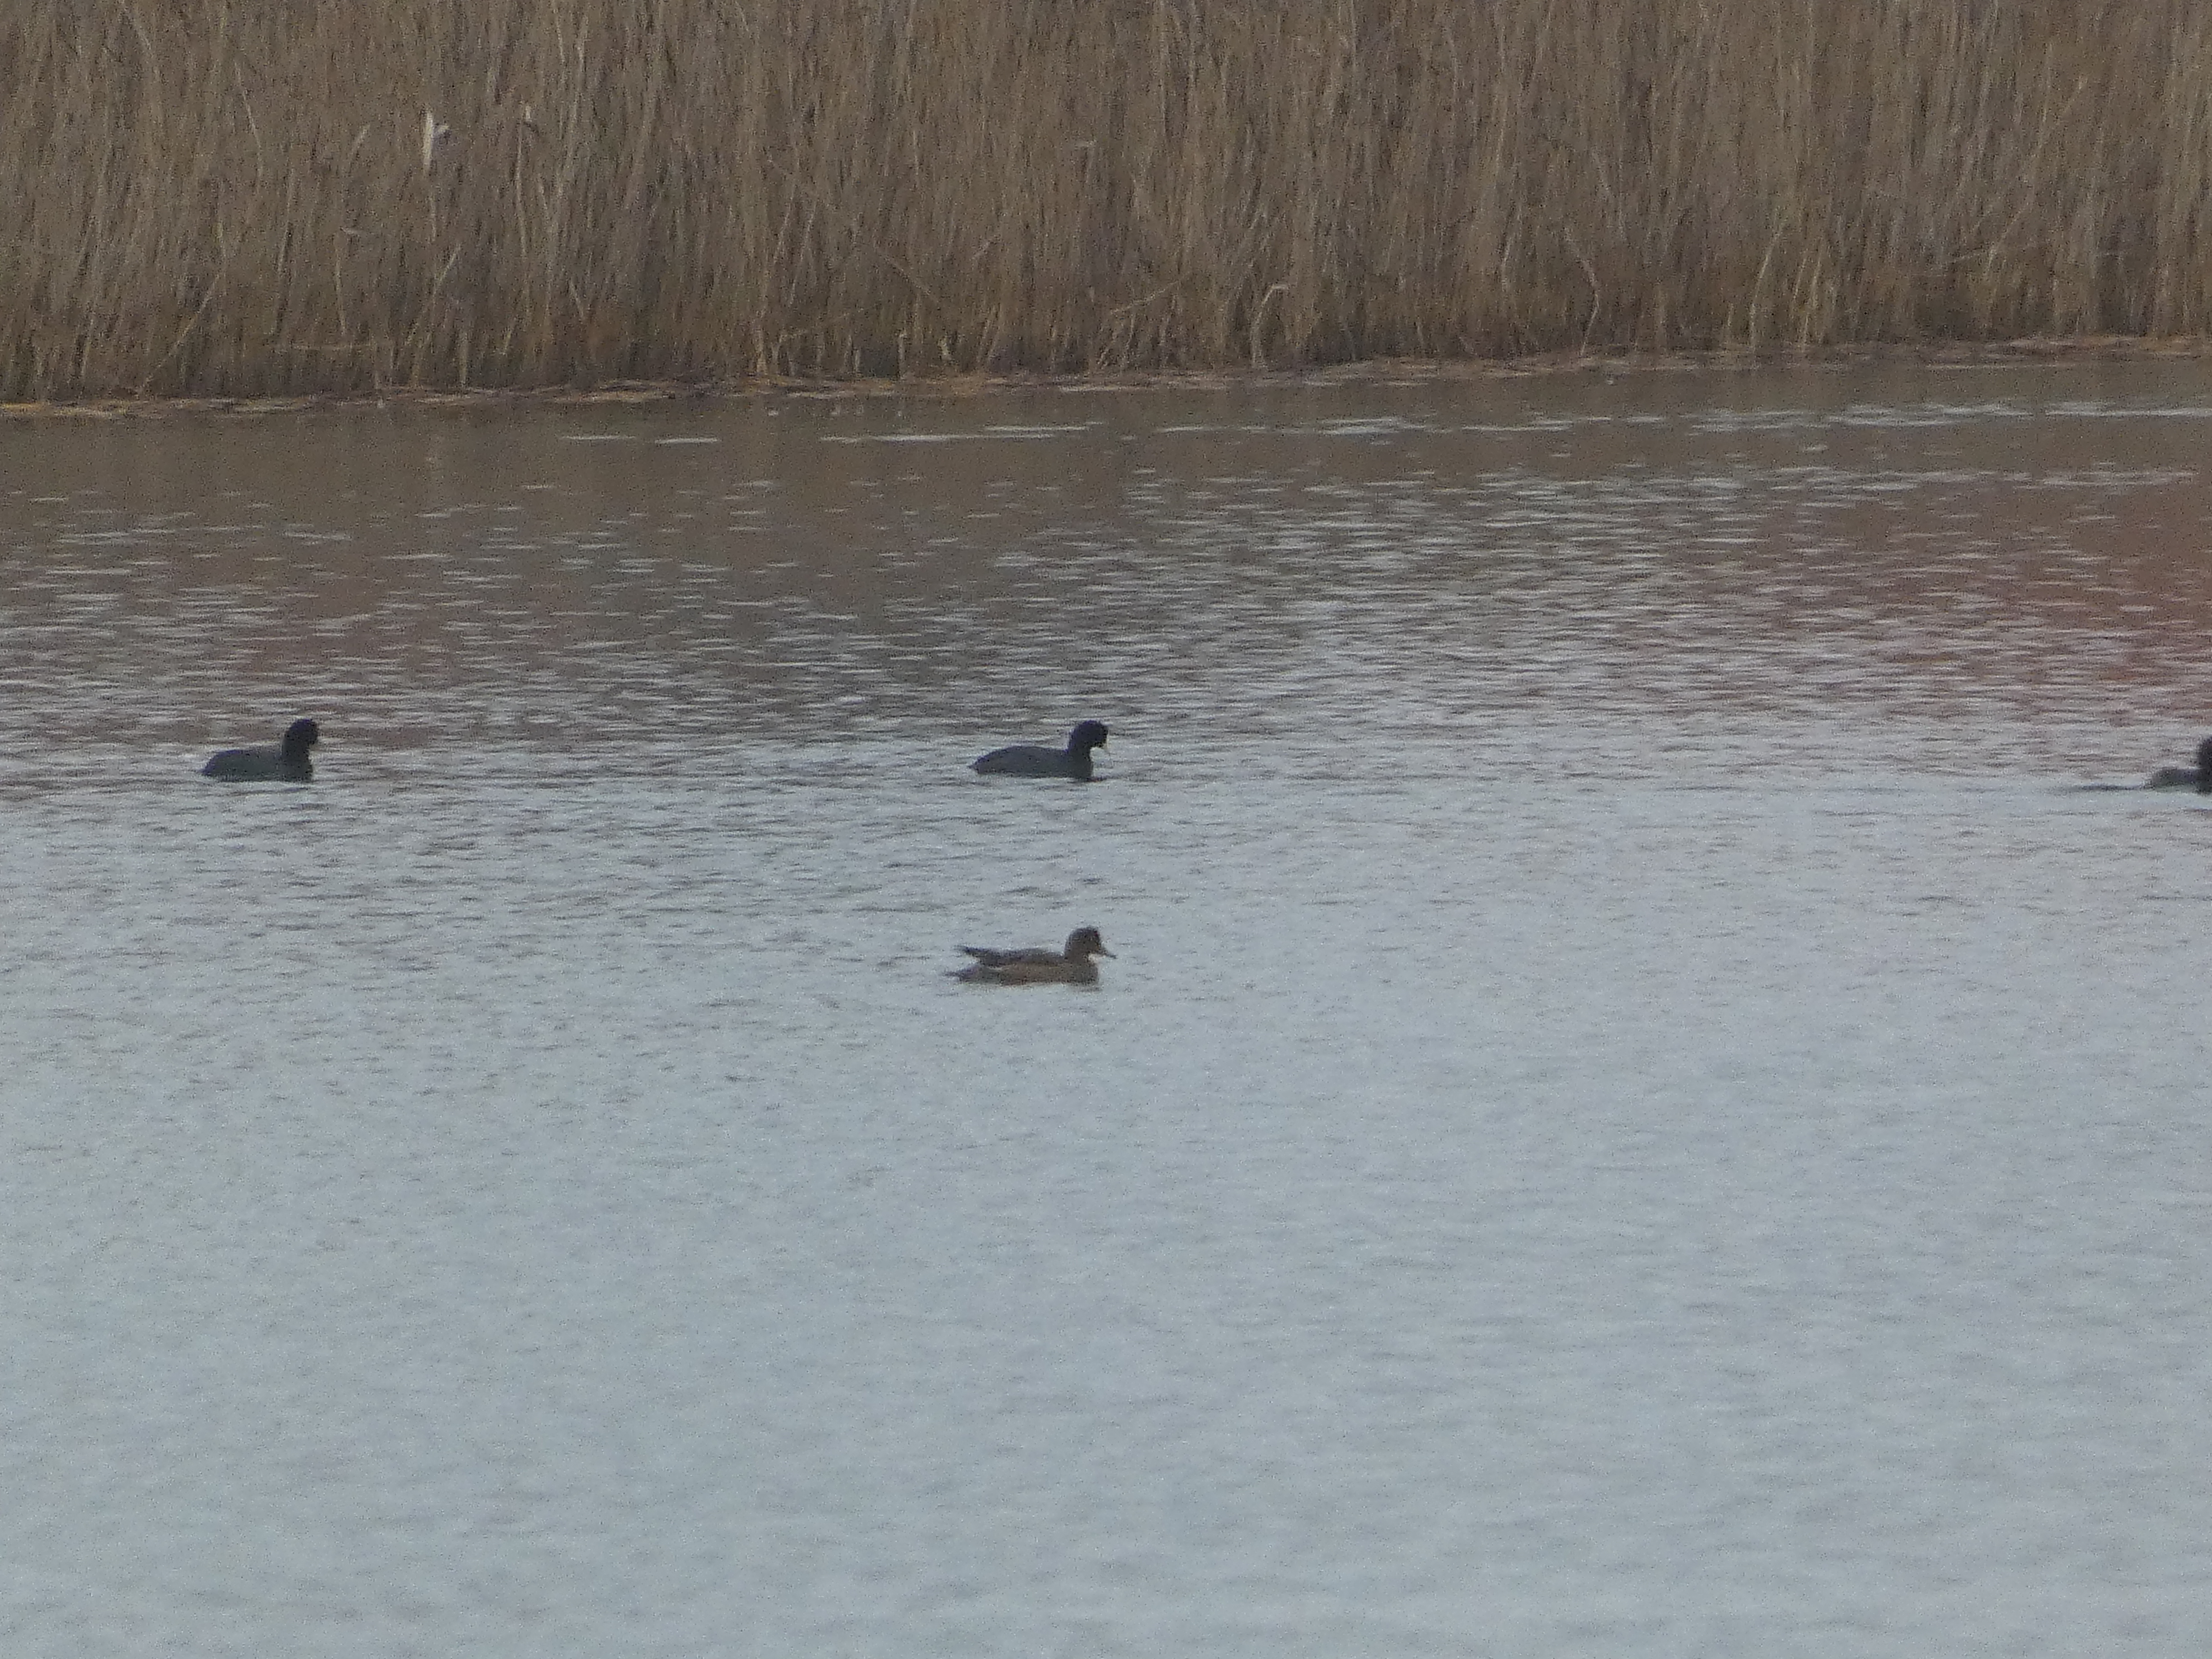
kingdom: Animalia
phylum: Chordata
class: Aves
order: Anseriformes
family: Anatidae
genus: Mareca
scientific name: Mareca penelope
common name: Pibeand
